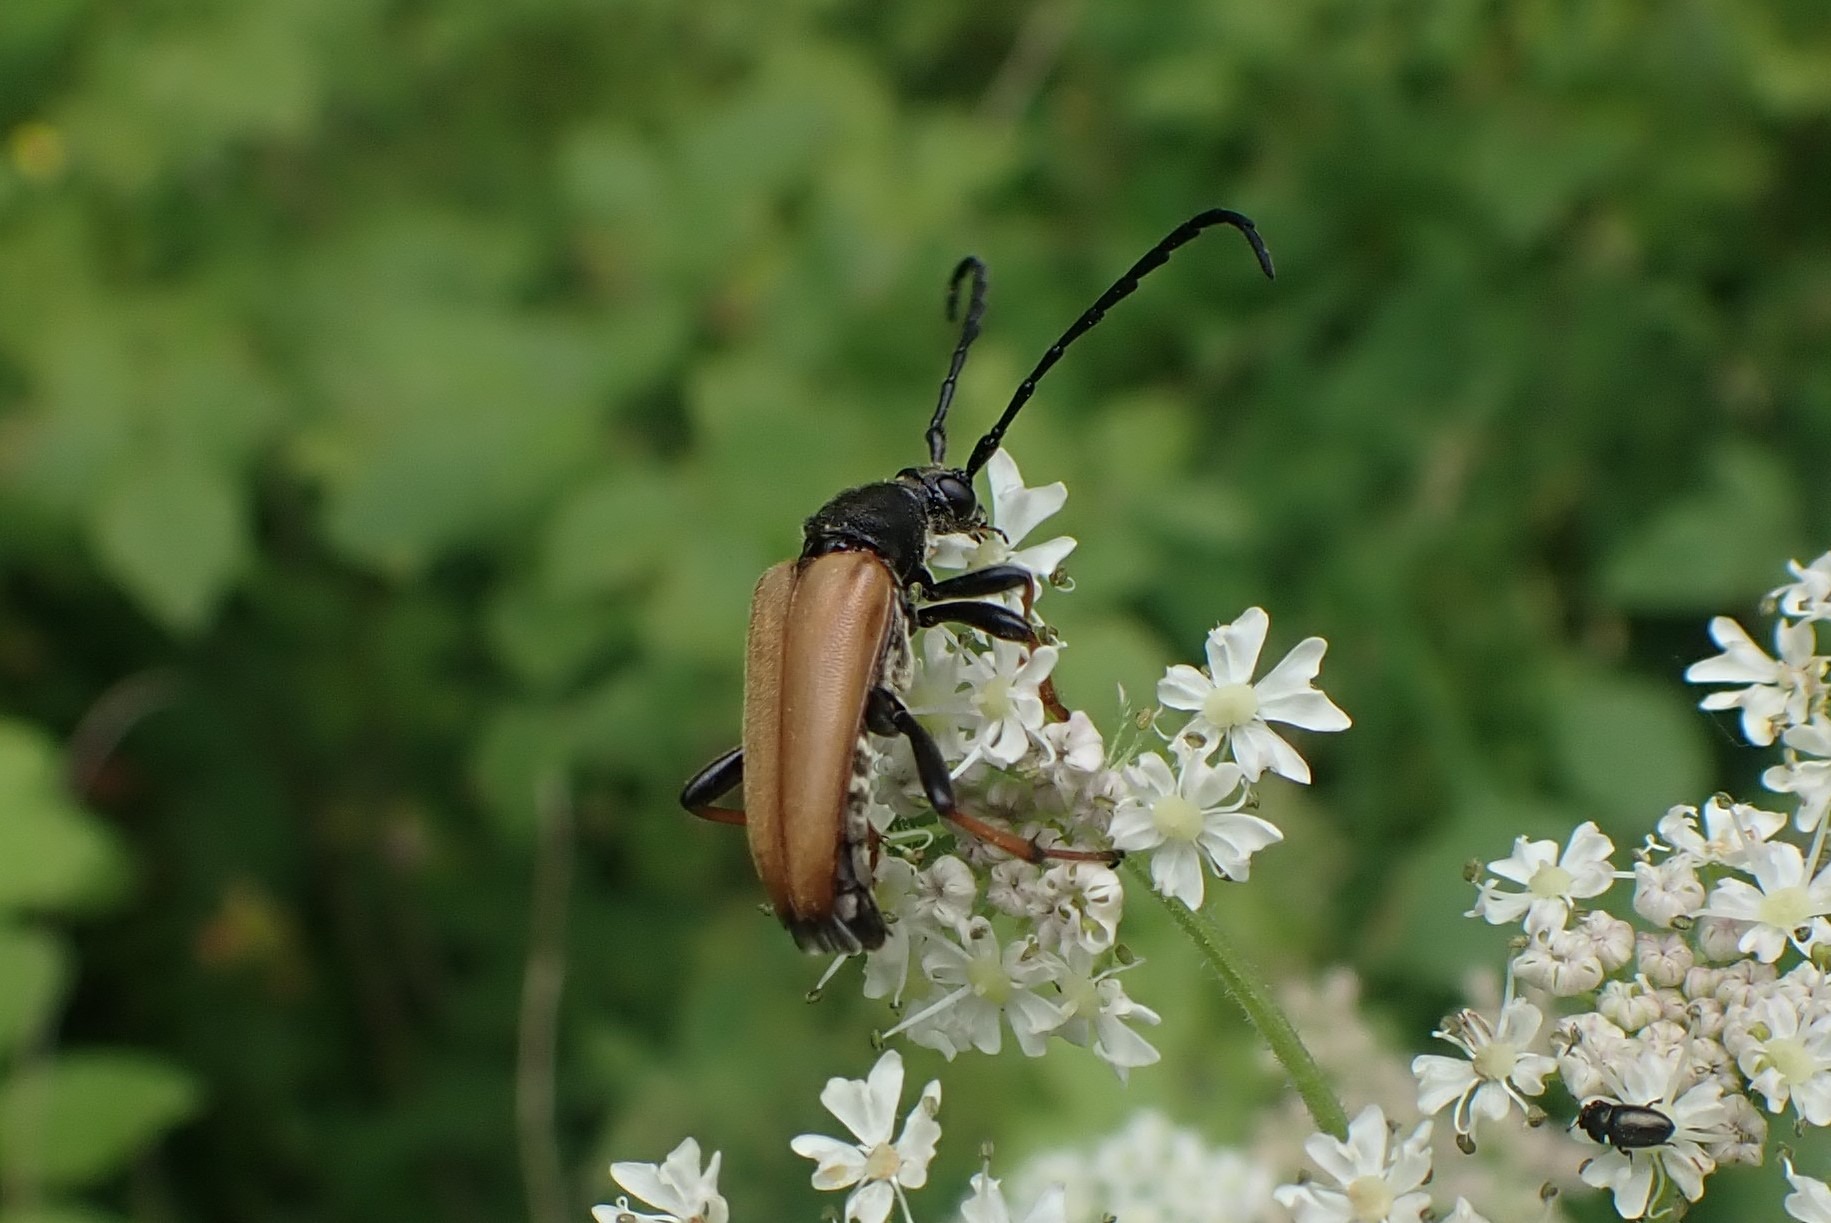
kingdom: Animalia
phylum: Arthropoda
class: Insecta
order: Coleoptera
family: Cerambycidae
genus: Stictoleptura
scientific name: Stictoleptura rubra
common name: Rød blomsterbuk
